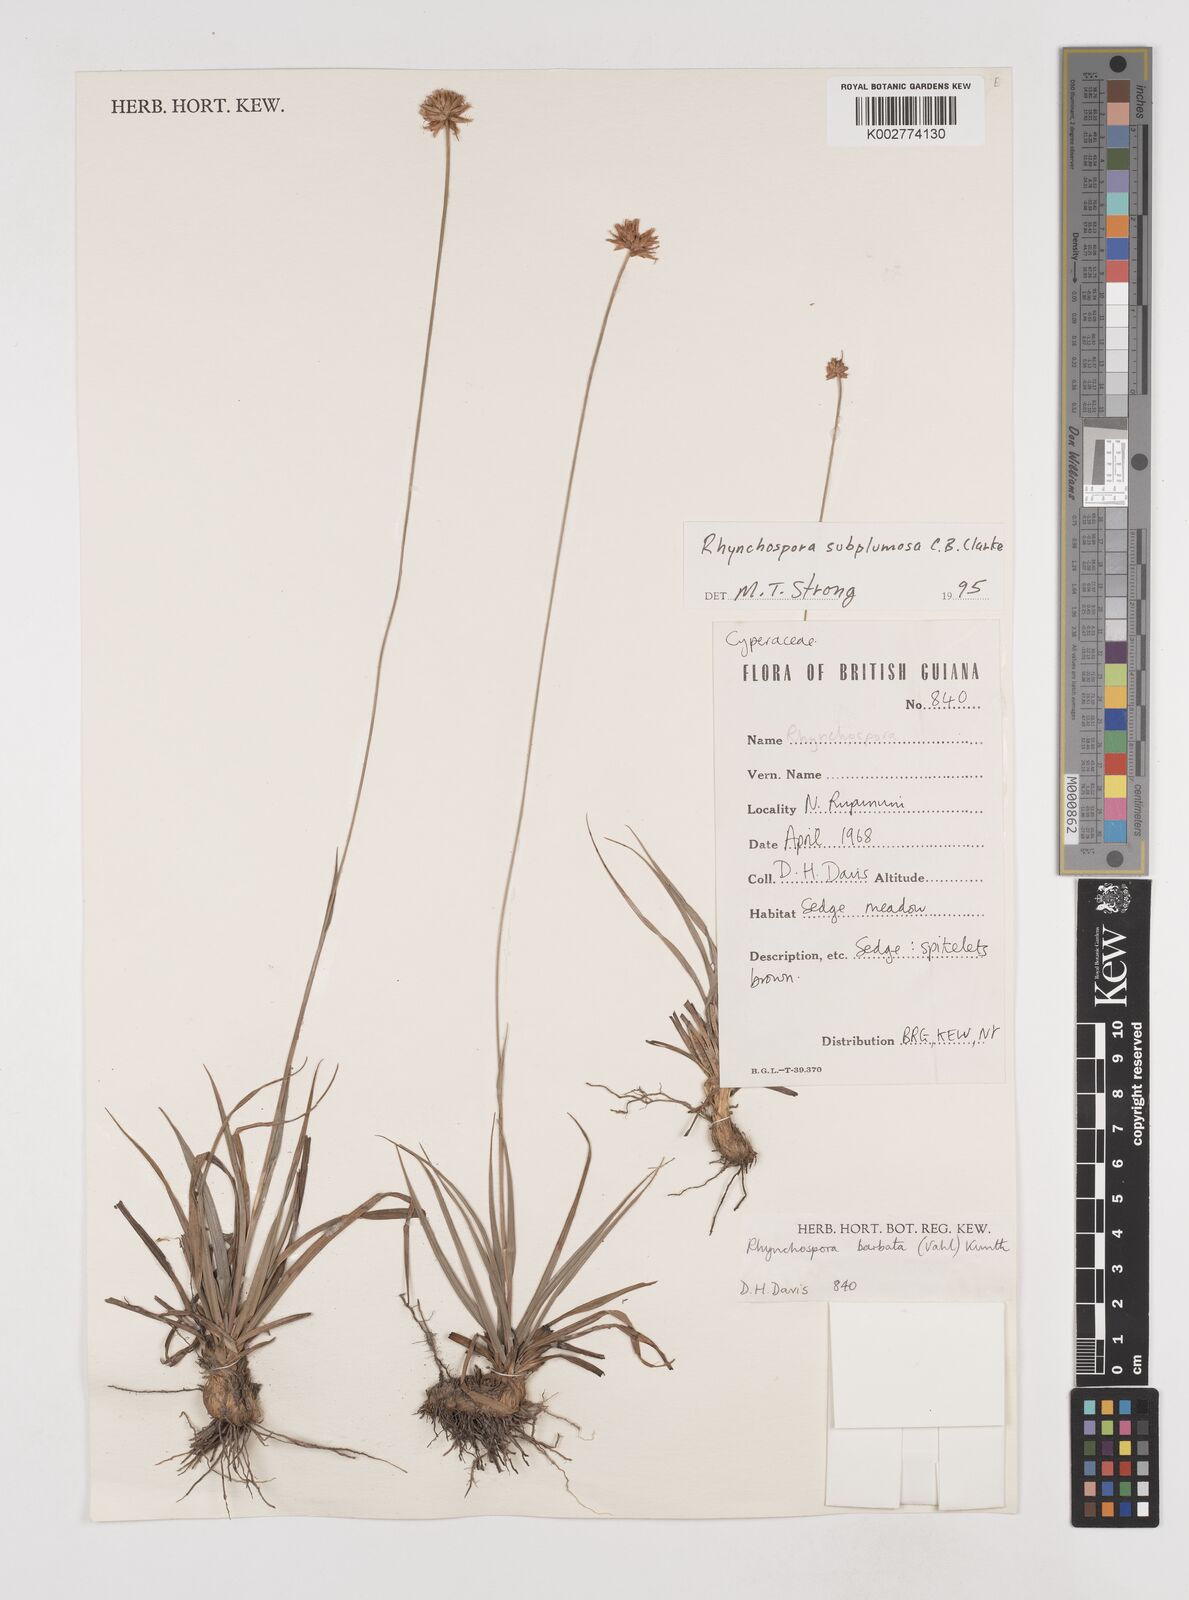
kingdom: Plantae
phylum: Tracheophyta
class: Liliopsida
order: Poales
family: Cyperaceae
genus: Rhynchospora
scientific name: Rhynchospora subplumosa
